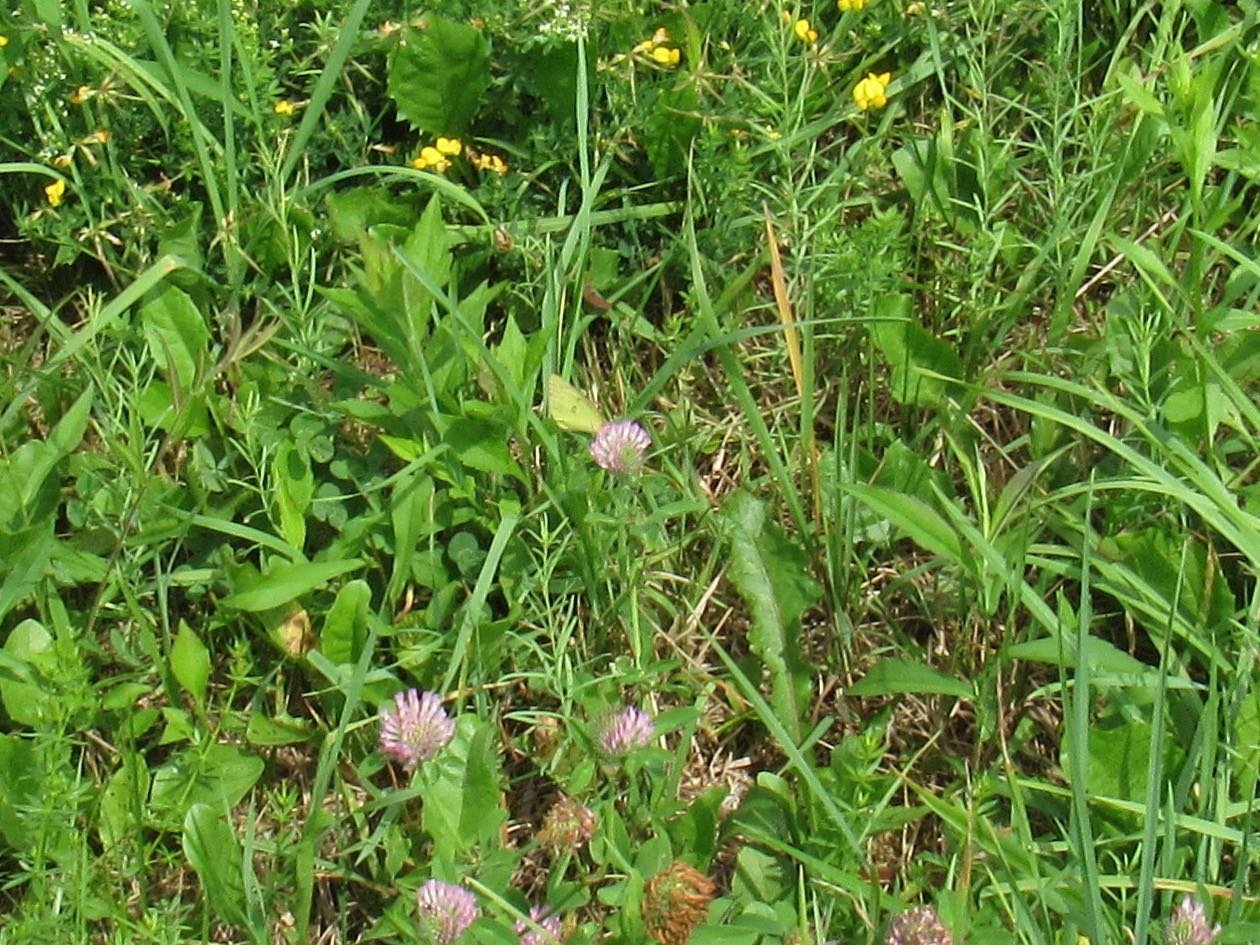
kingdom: Animalia
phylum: Arthropoda
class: Insecta
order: Lepidoptera
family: Pieridae
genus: Colias
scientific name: Colias philodice
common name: Clouded Sulphur
